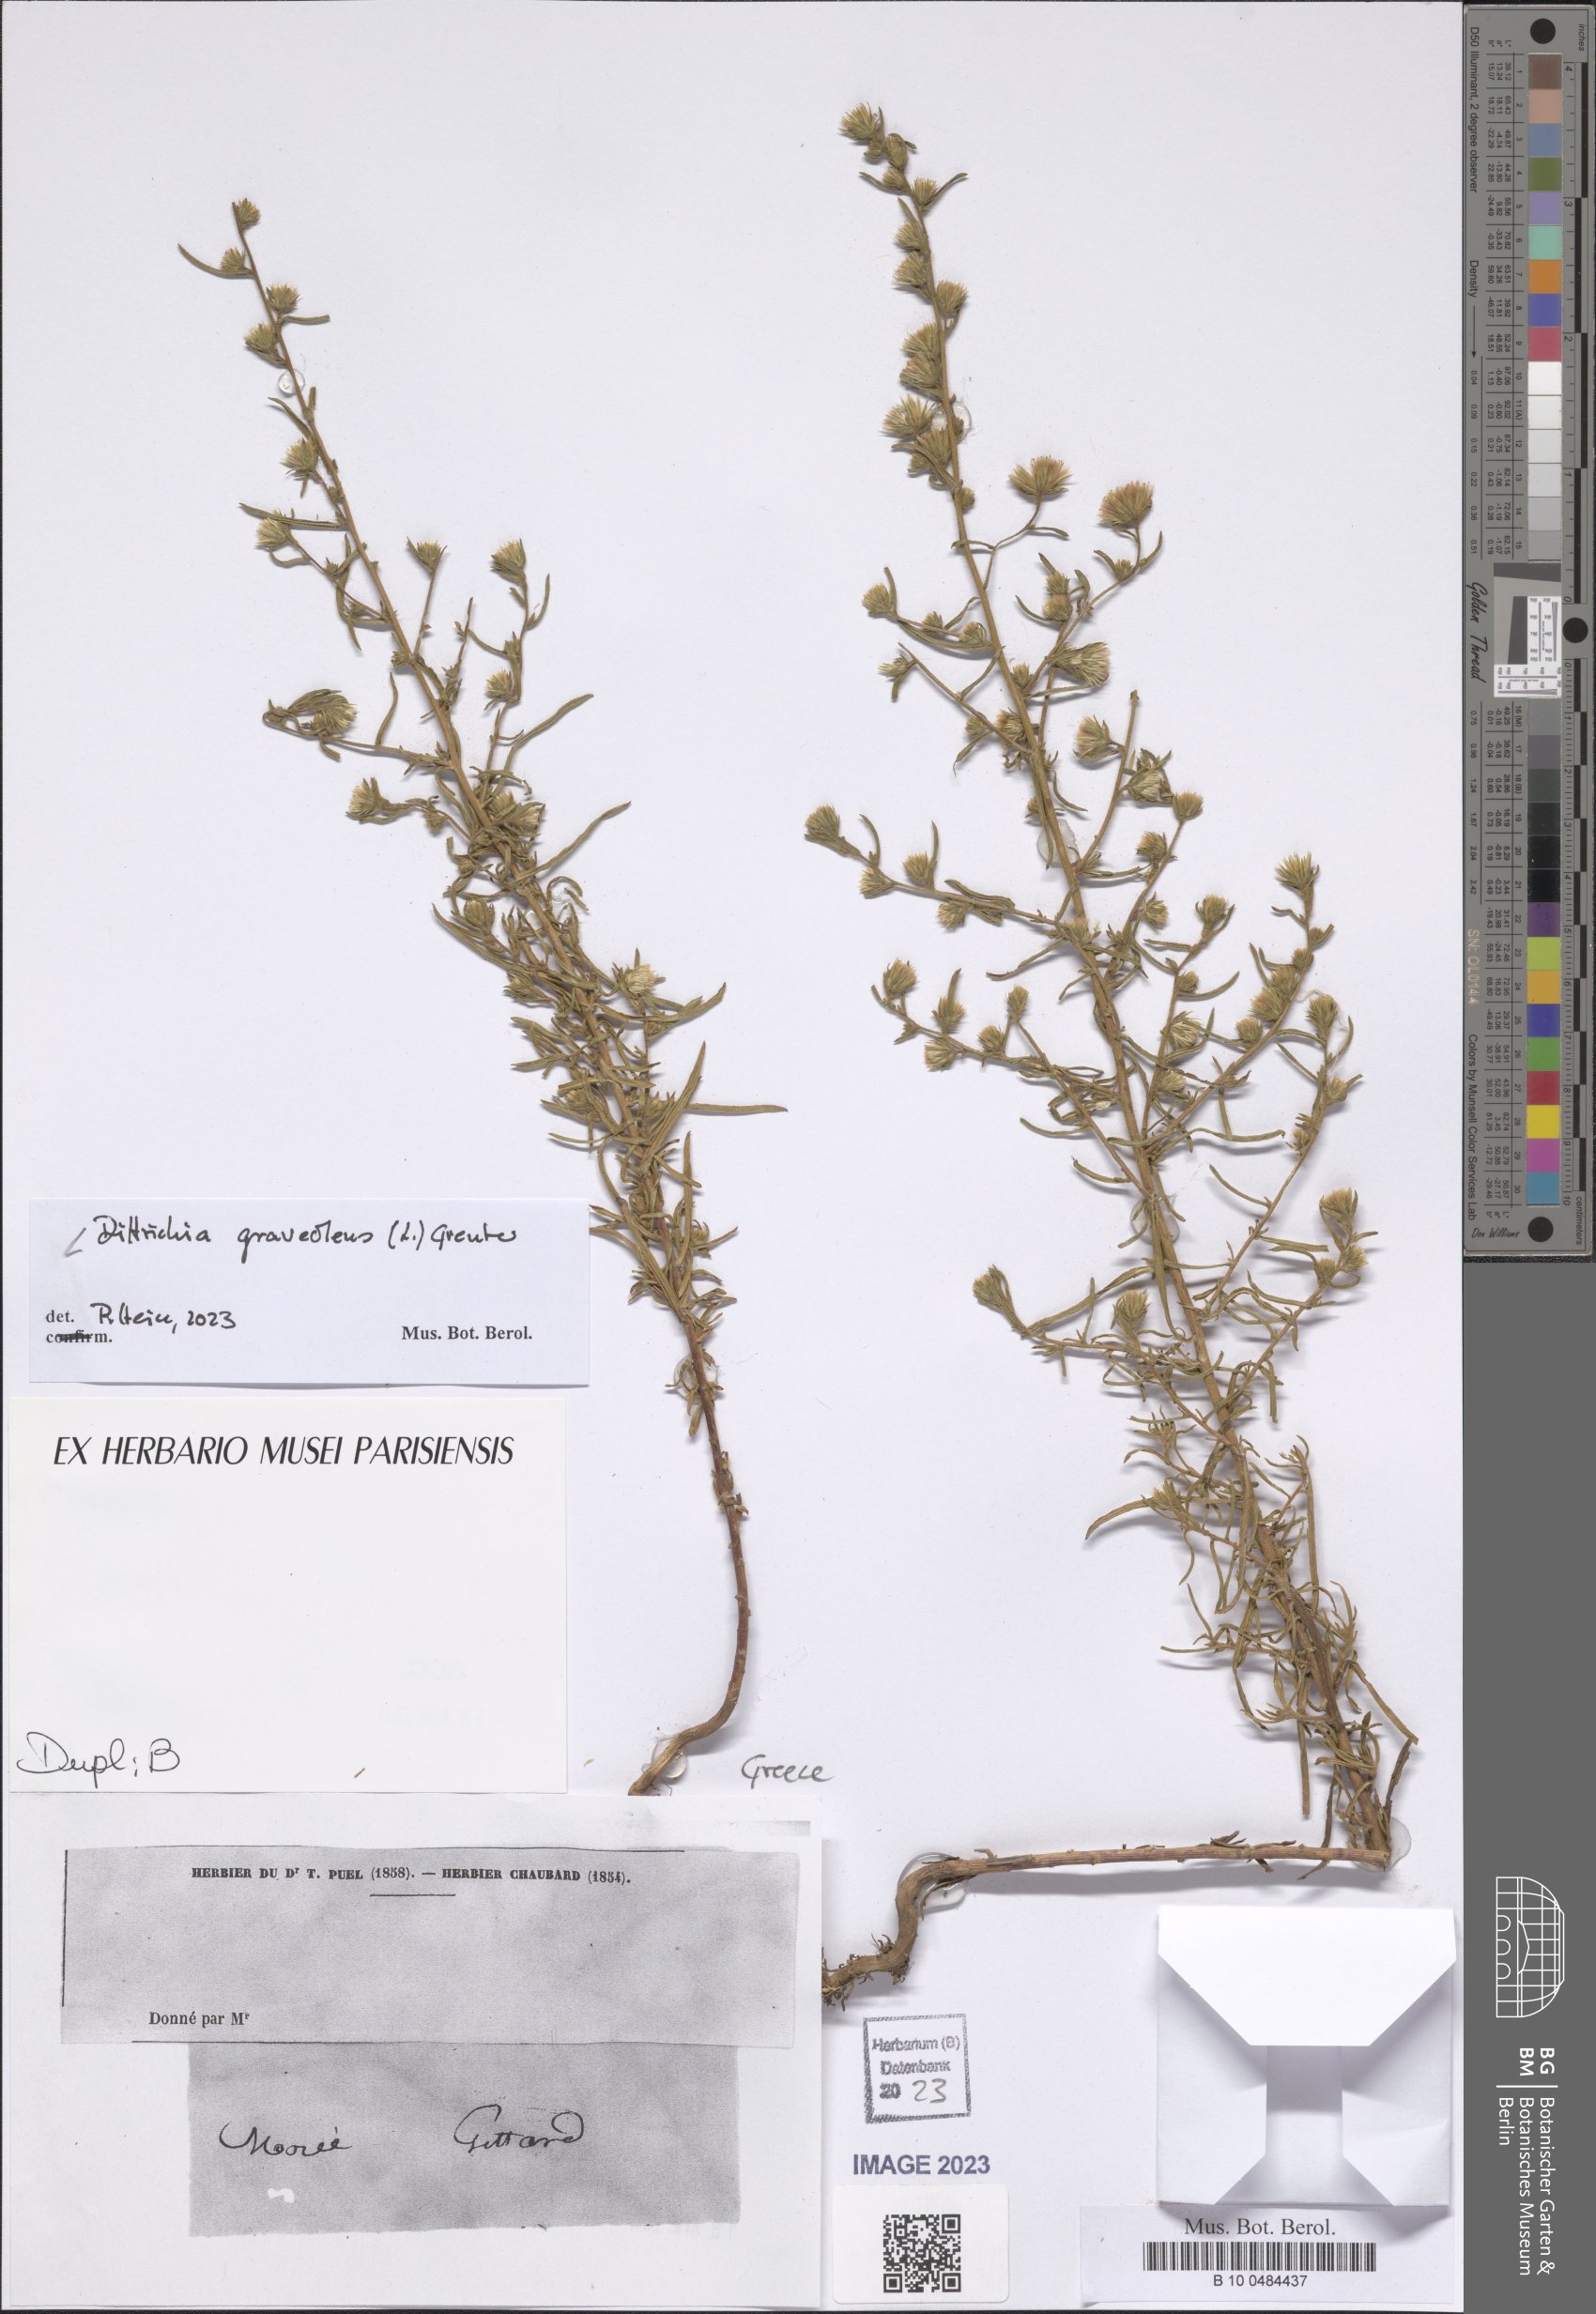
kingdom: Plantae
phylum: Tracheophyta
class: Magnoliopsida
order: Asterales
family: Asteraceae
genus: Dittrichia
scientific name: Dittrichia graveolens
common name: Stinking fleabane
